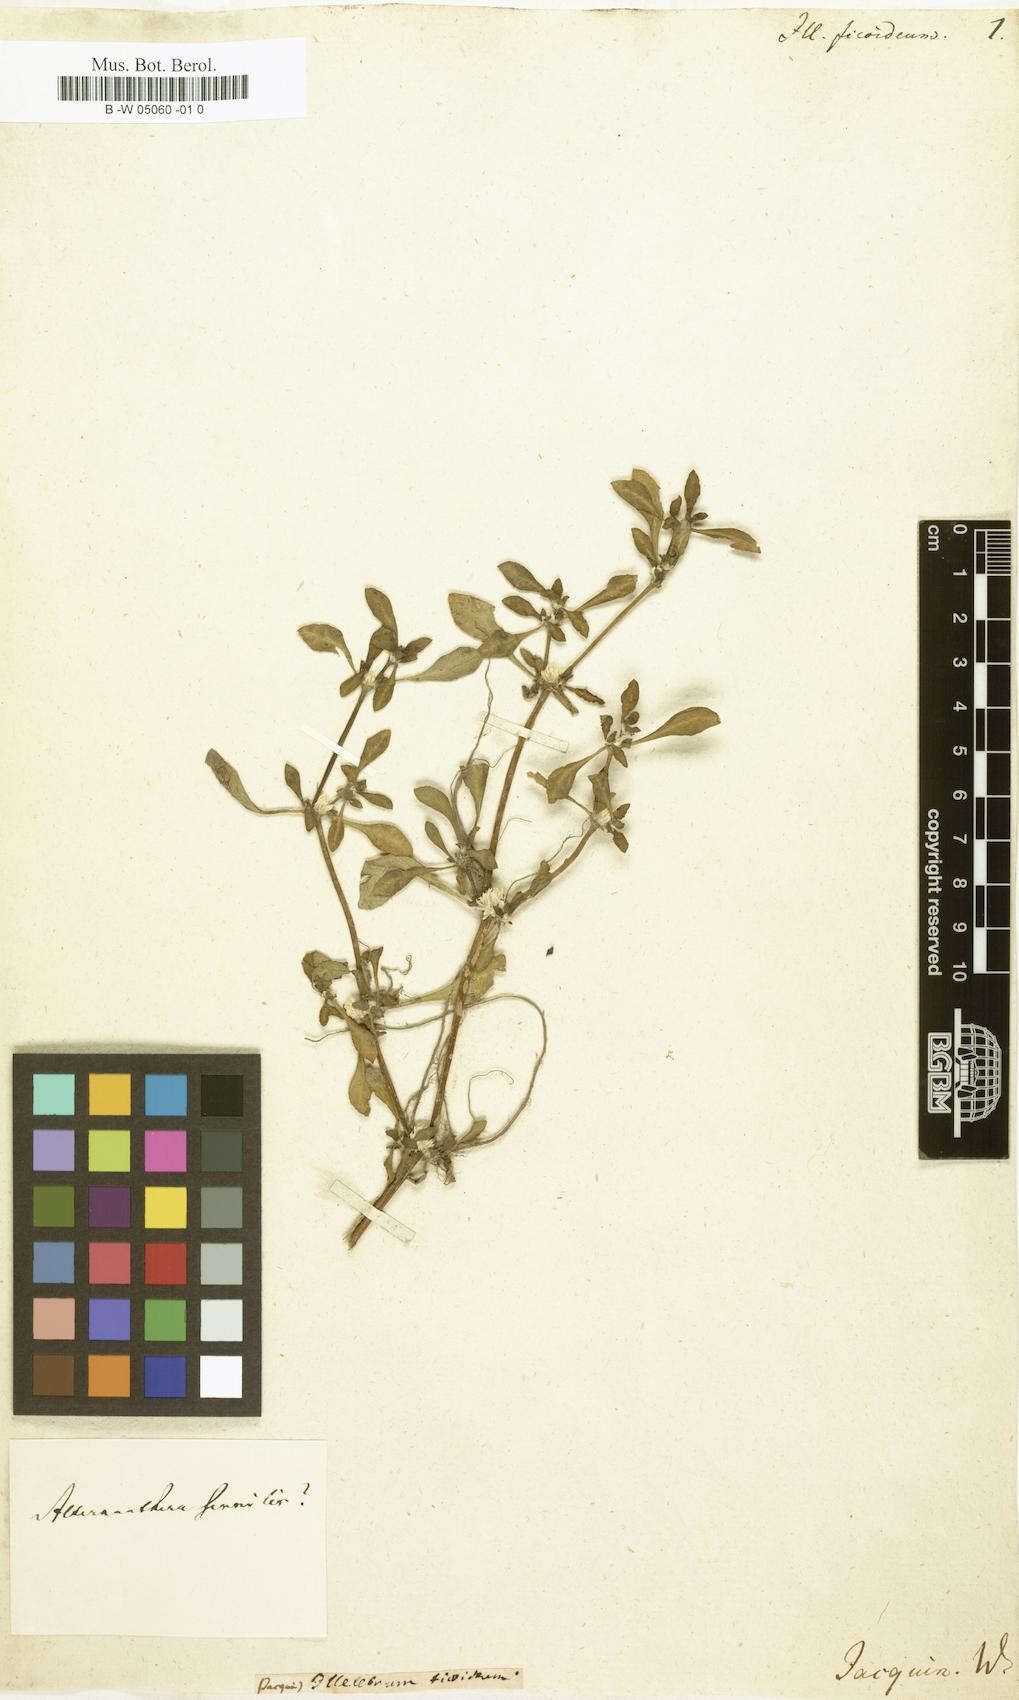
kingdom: Plantae
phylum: Tracheophyta
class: Magnoliopsida
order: Caryophyllales
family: Caryophyllaceae
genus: Illecebrum
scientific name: Illecebrum
